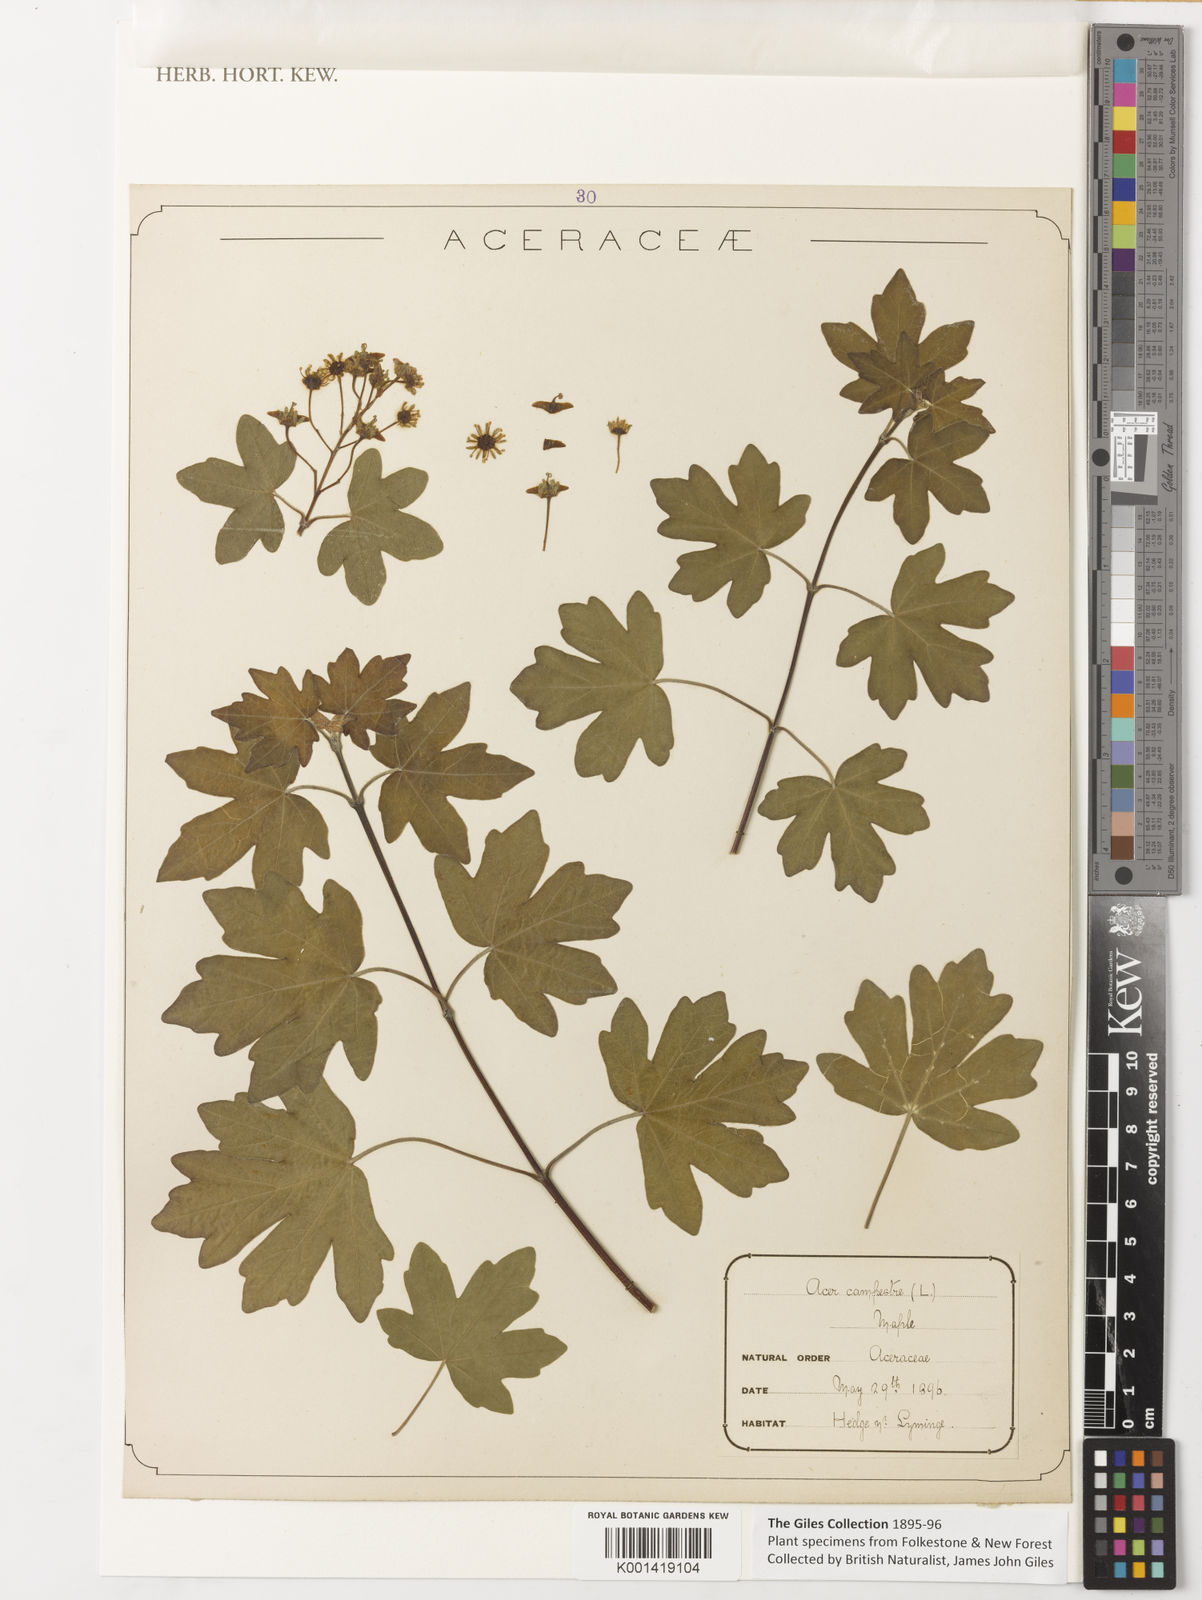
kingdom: Plantae
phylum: Tracheophyta
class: Magnoliopsida
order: Sapindales
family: Sapindaceae
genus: Acer
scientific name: Acer campestre
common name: Field maple
